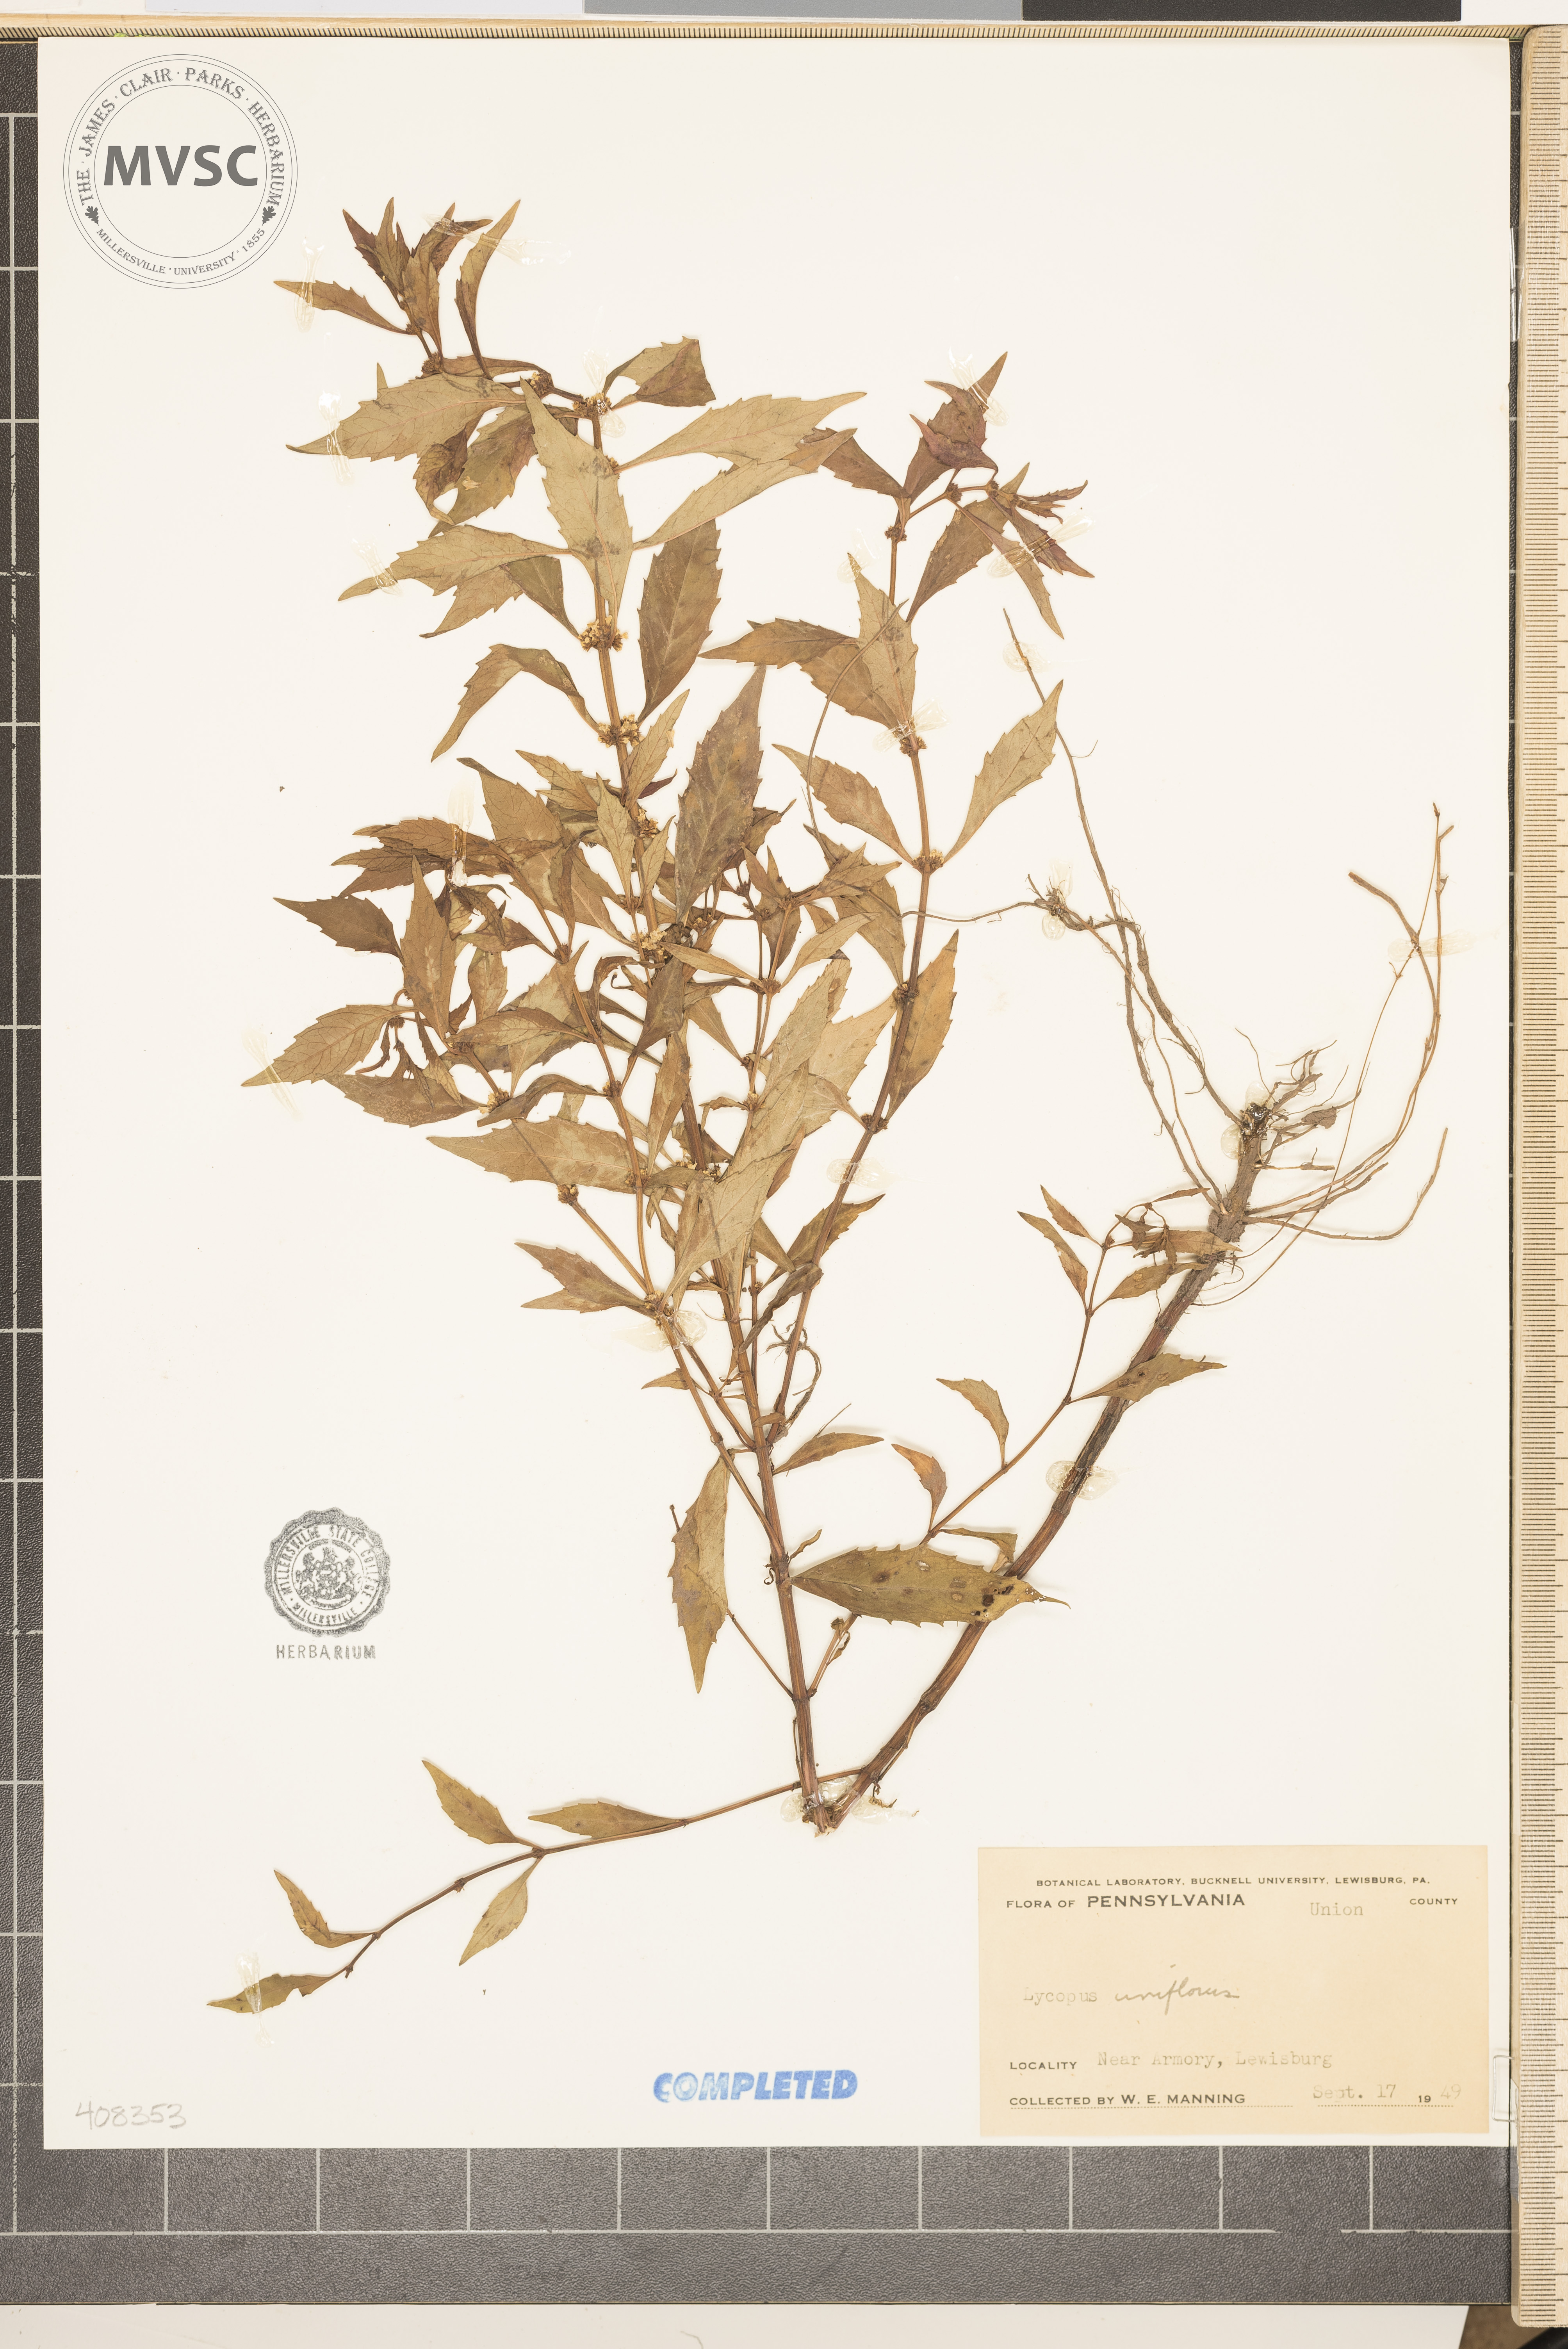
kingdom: Plantae
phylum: Tracheophyta
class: Magnoliopsida
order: Lamiales
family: Lamiaceae
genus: Lycopus
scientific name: Lycopus uniflorus
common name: Northern bugleweed
